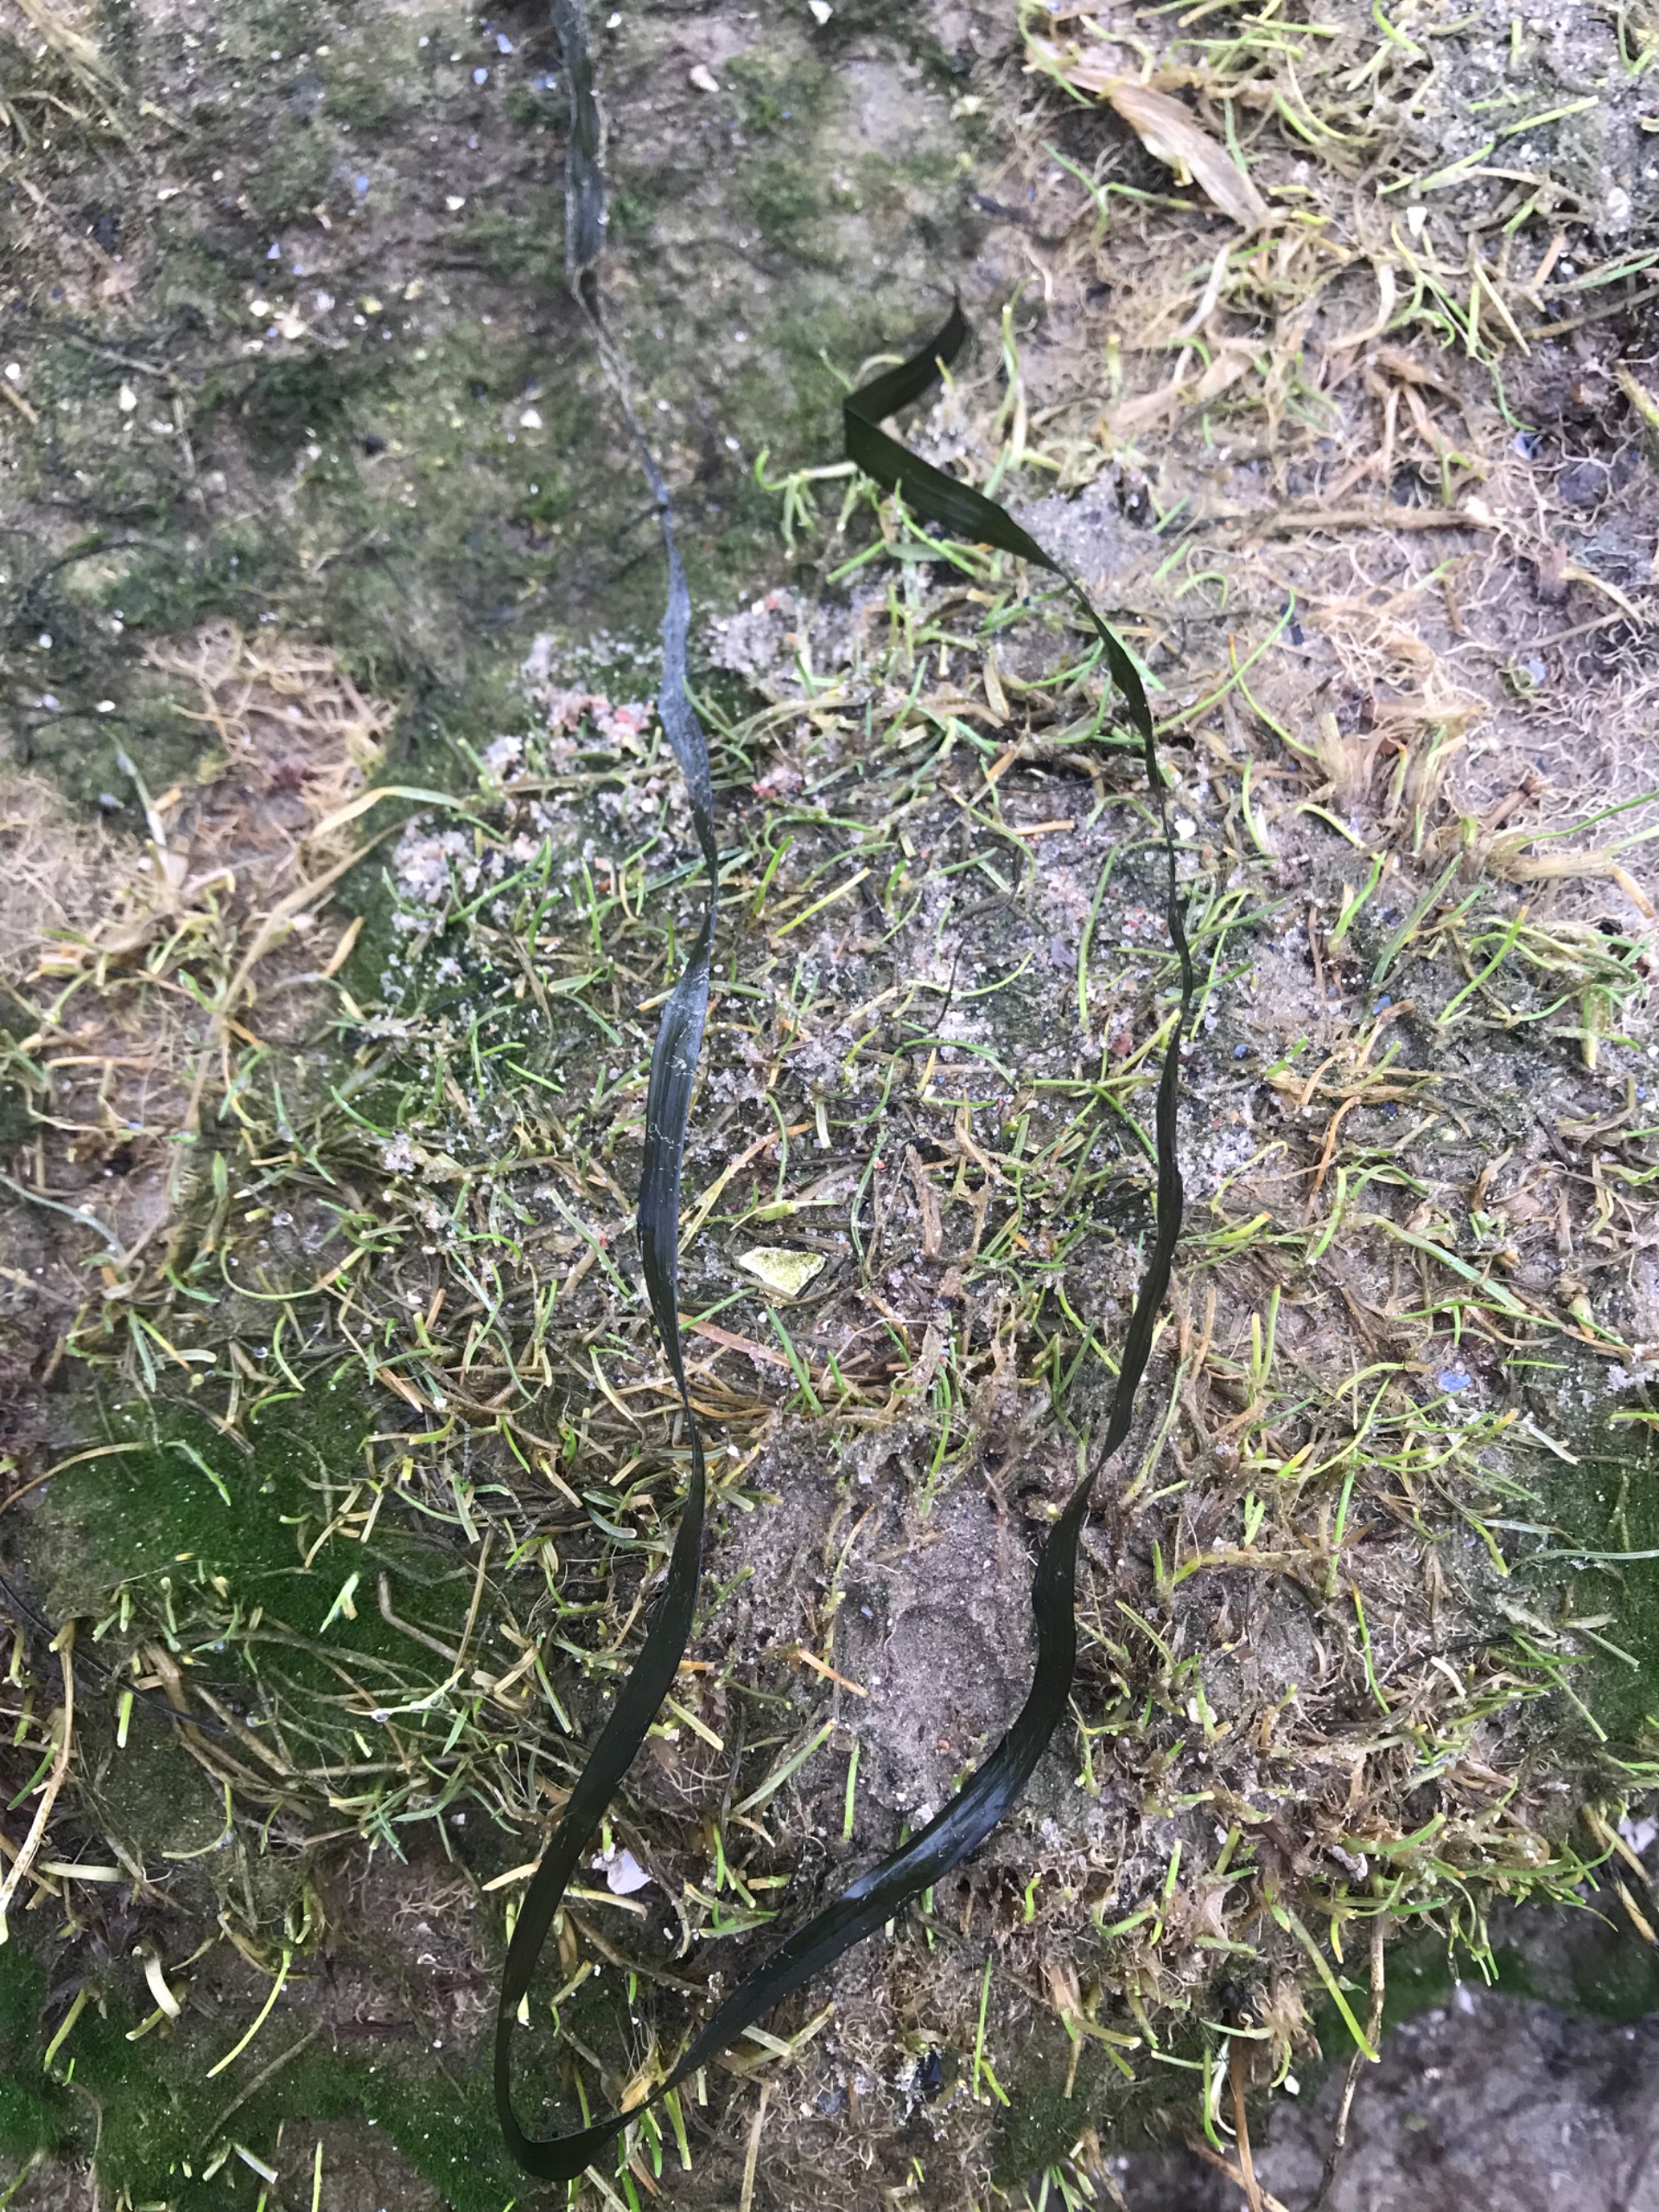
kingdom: Plantae
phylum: Tracheophyta
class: Liliopsida
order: Alismatales
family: Zosteraceae
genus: Zostera
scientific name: Zostera marina
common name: Almindelig bændeltang
